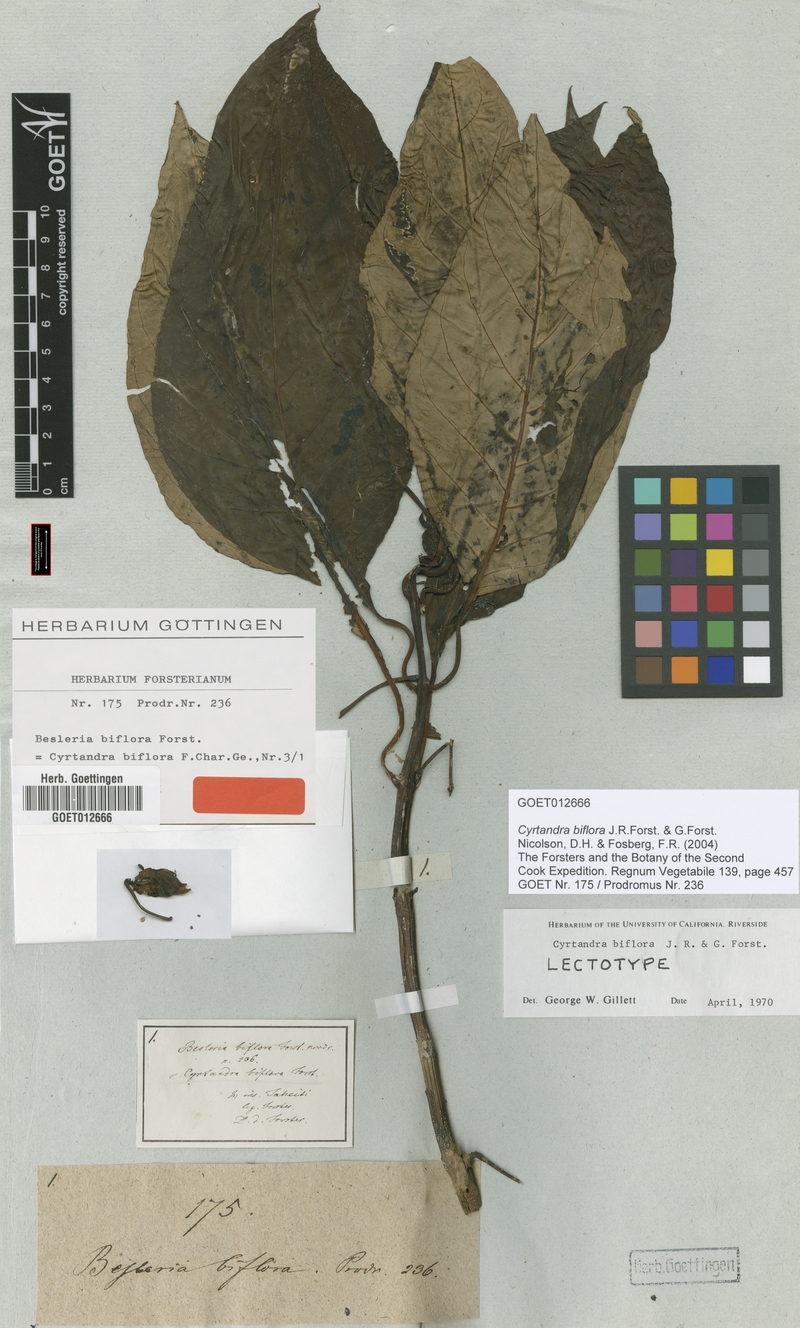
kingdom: Plantae
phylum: Tracheophyta
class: Magnoliopsida
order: Lamiales
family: Gesneriaceae
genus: Cyrtandra
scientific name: Cyrtandra biflora
